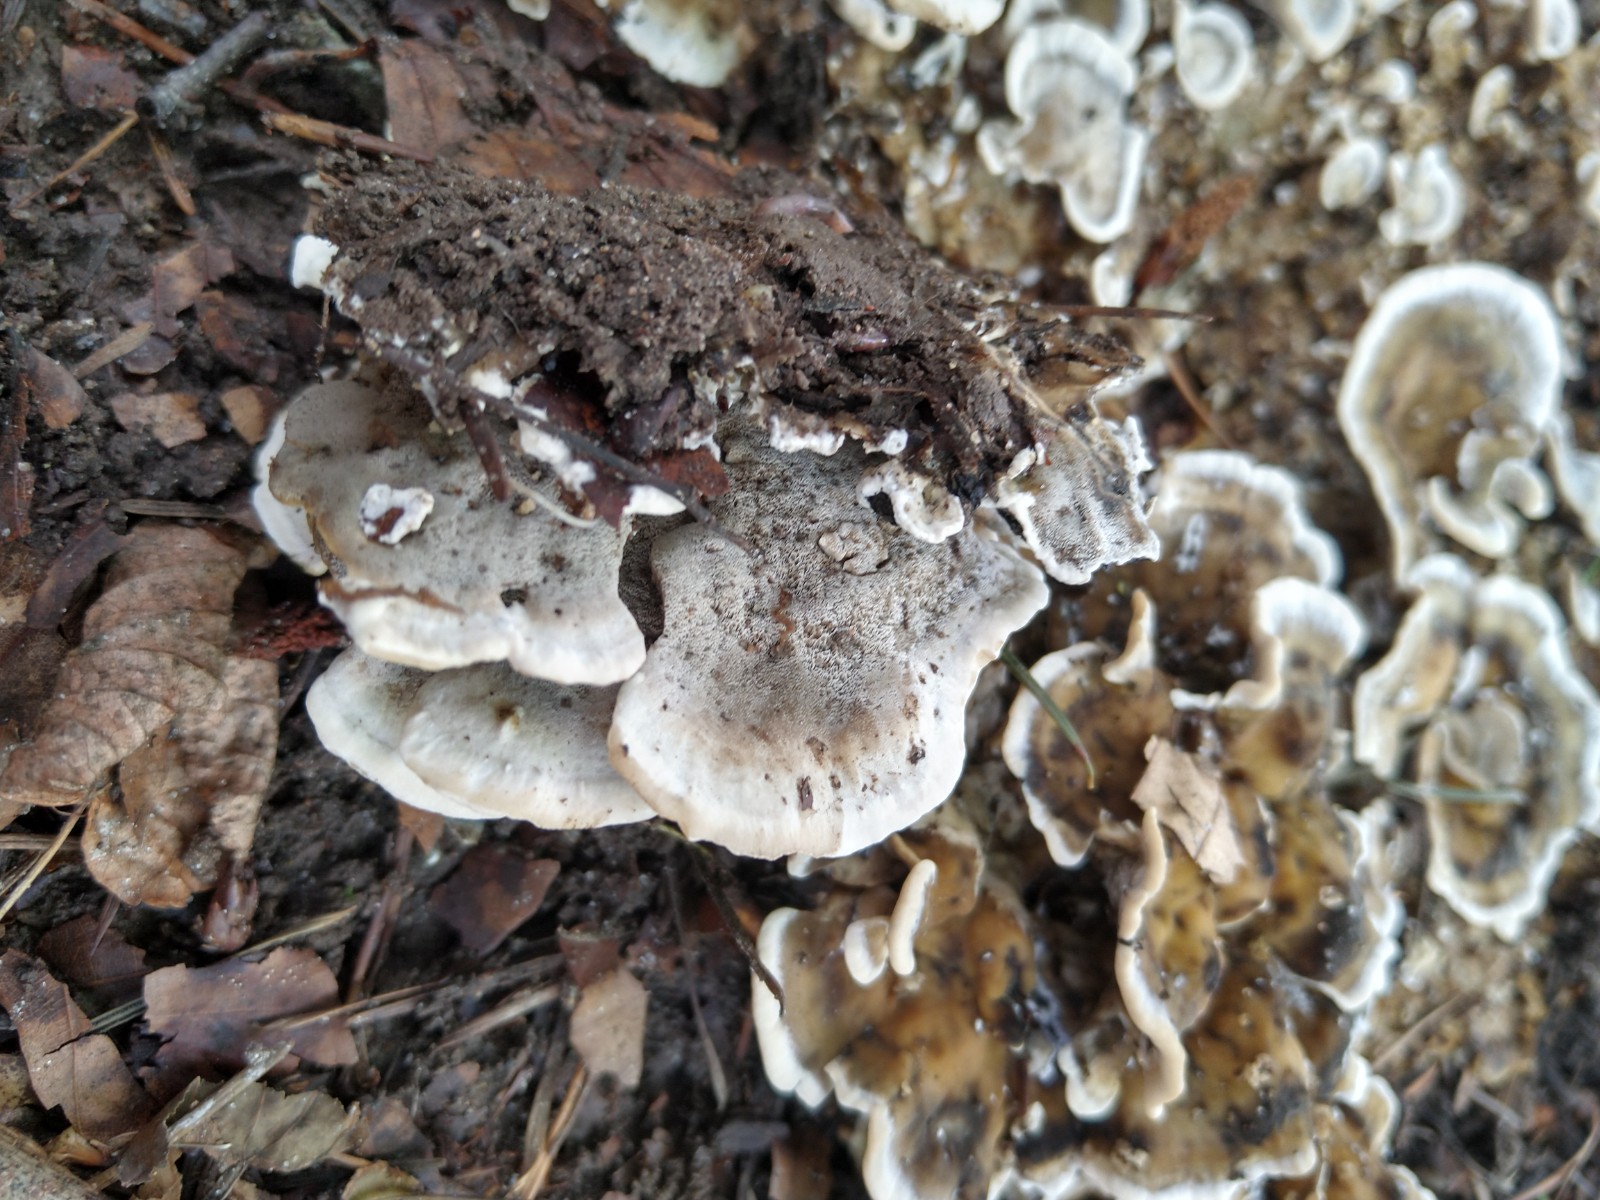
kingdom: Fungi
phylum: Basidiomycota
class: Agaricomycetes
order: Polyporales
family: Phanerochaetaceae
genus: Bjerkandera
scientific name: Bjerkandera adusta
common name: sveden sodporesvamp
